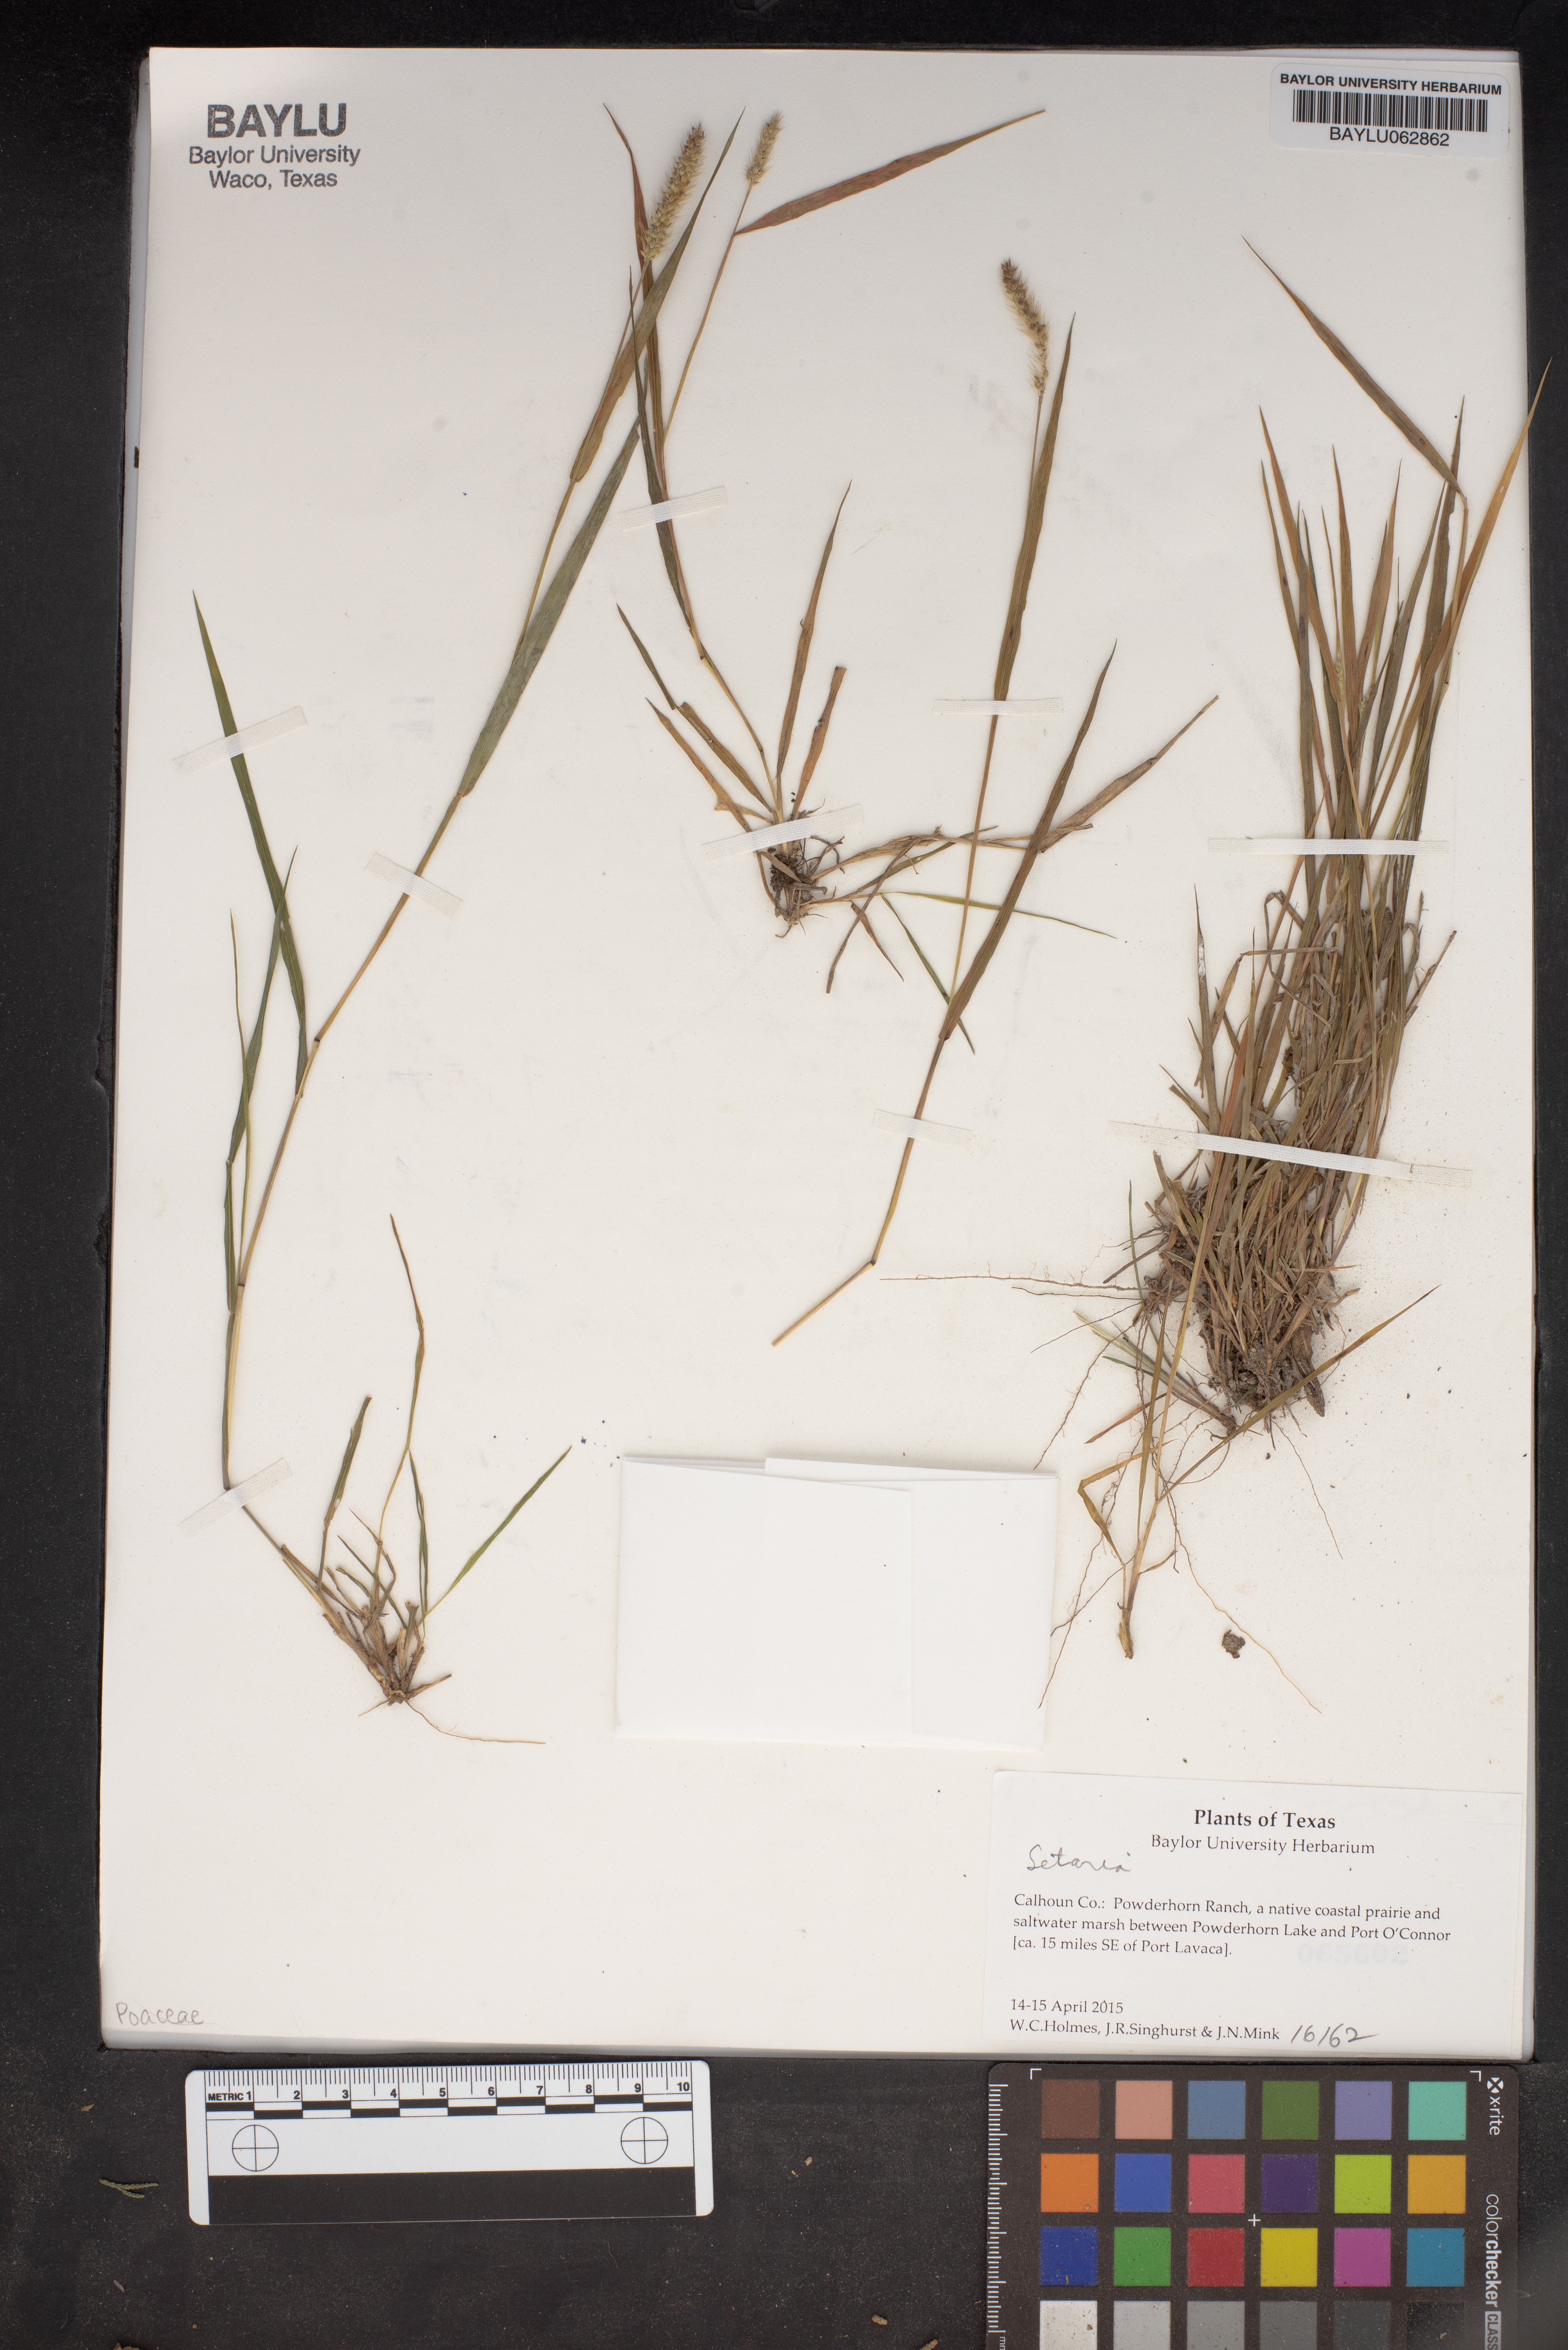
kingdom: Plantae
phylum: Tracheophyta
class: Liliopsida
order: Poales
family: Poaceae
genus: Setaria
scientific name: Setaria
